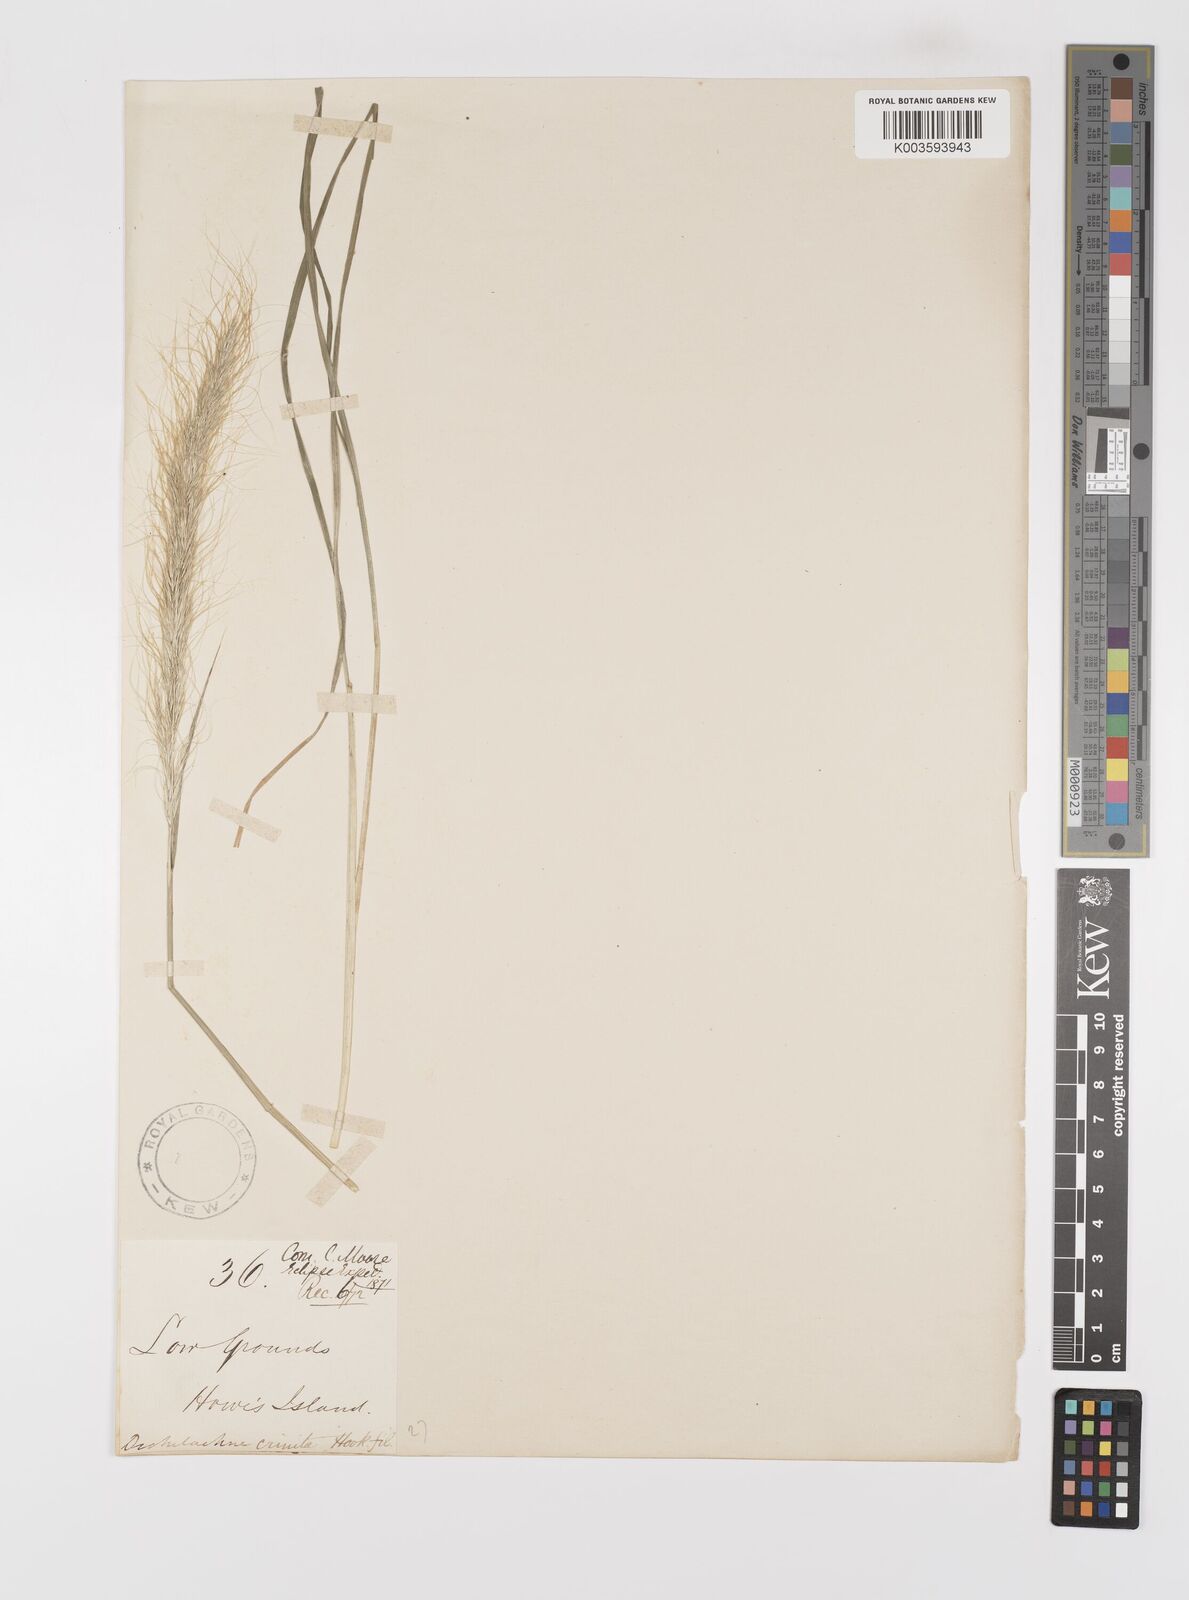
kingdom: Plantae
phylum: Tracheophyta
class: Liliopsida
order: Poales
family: Poaceae
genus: Dichelachne
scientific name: Dichelachne crinita
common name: Clovenfoot plumegrass
